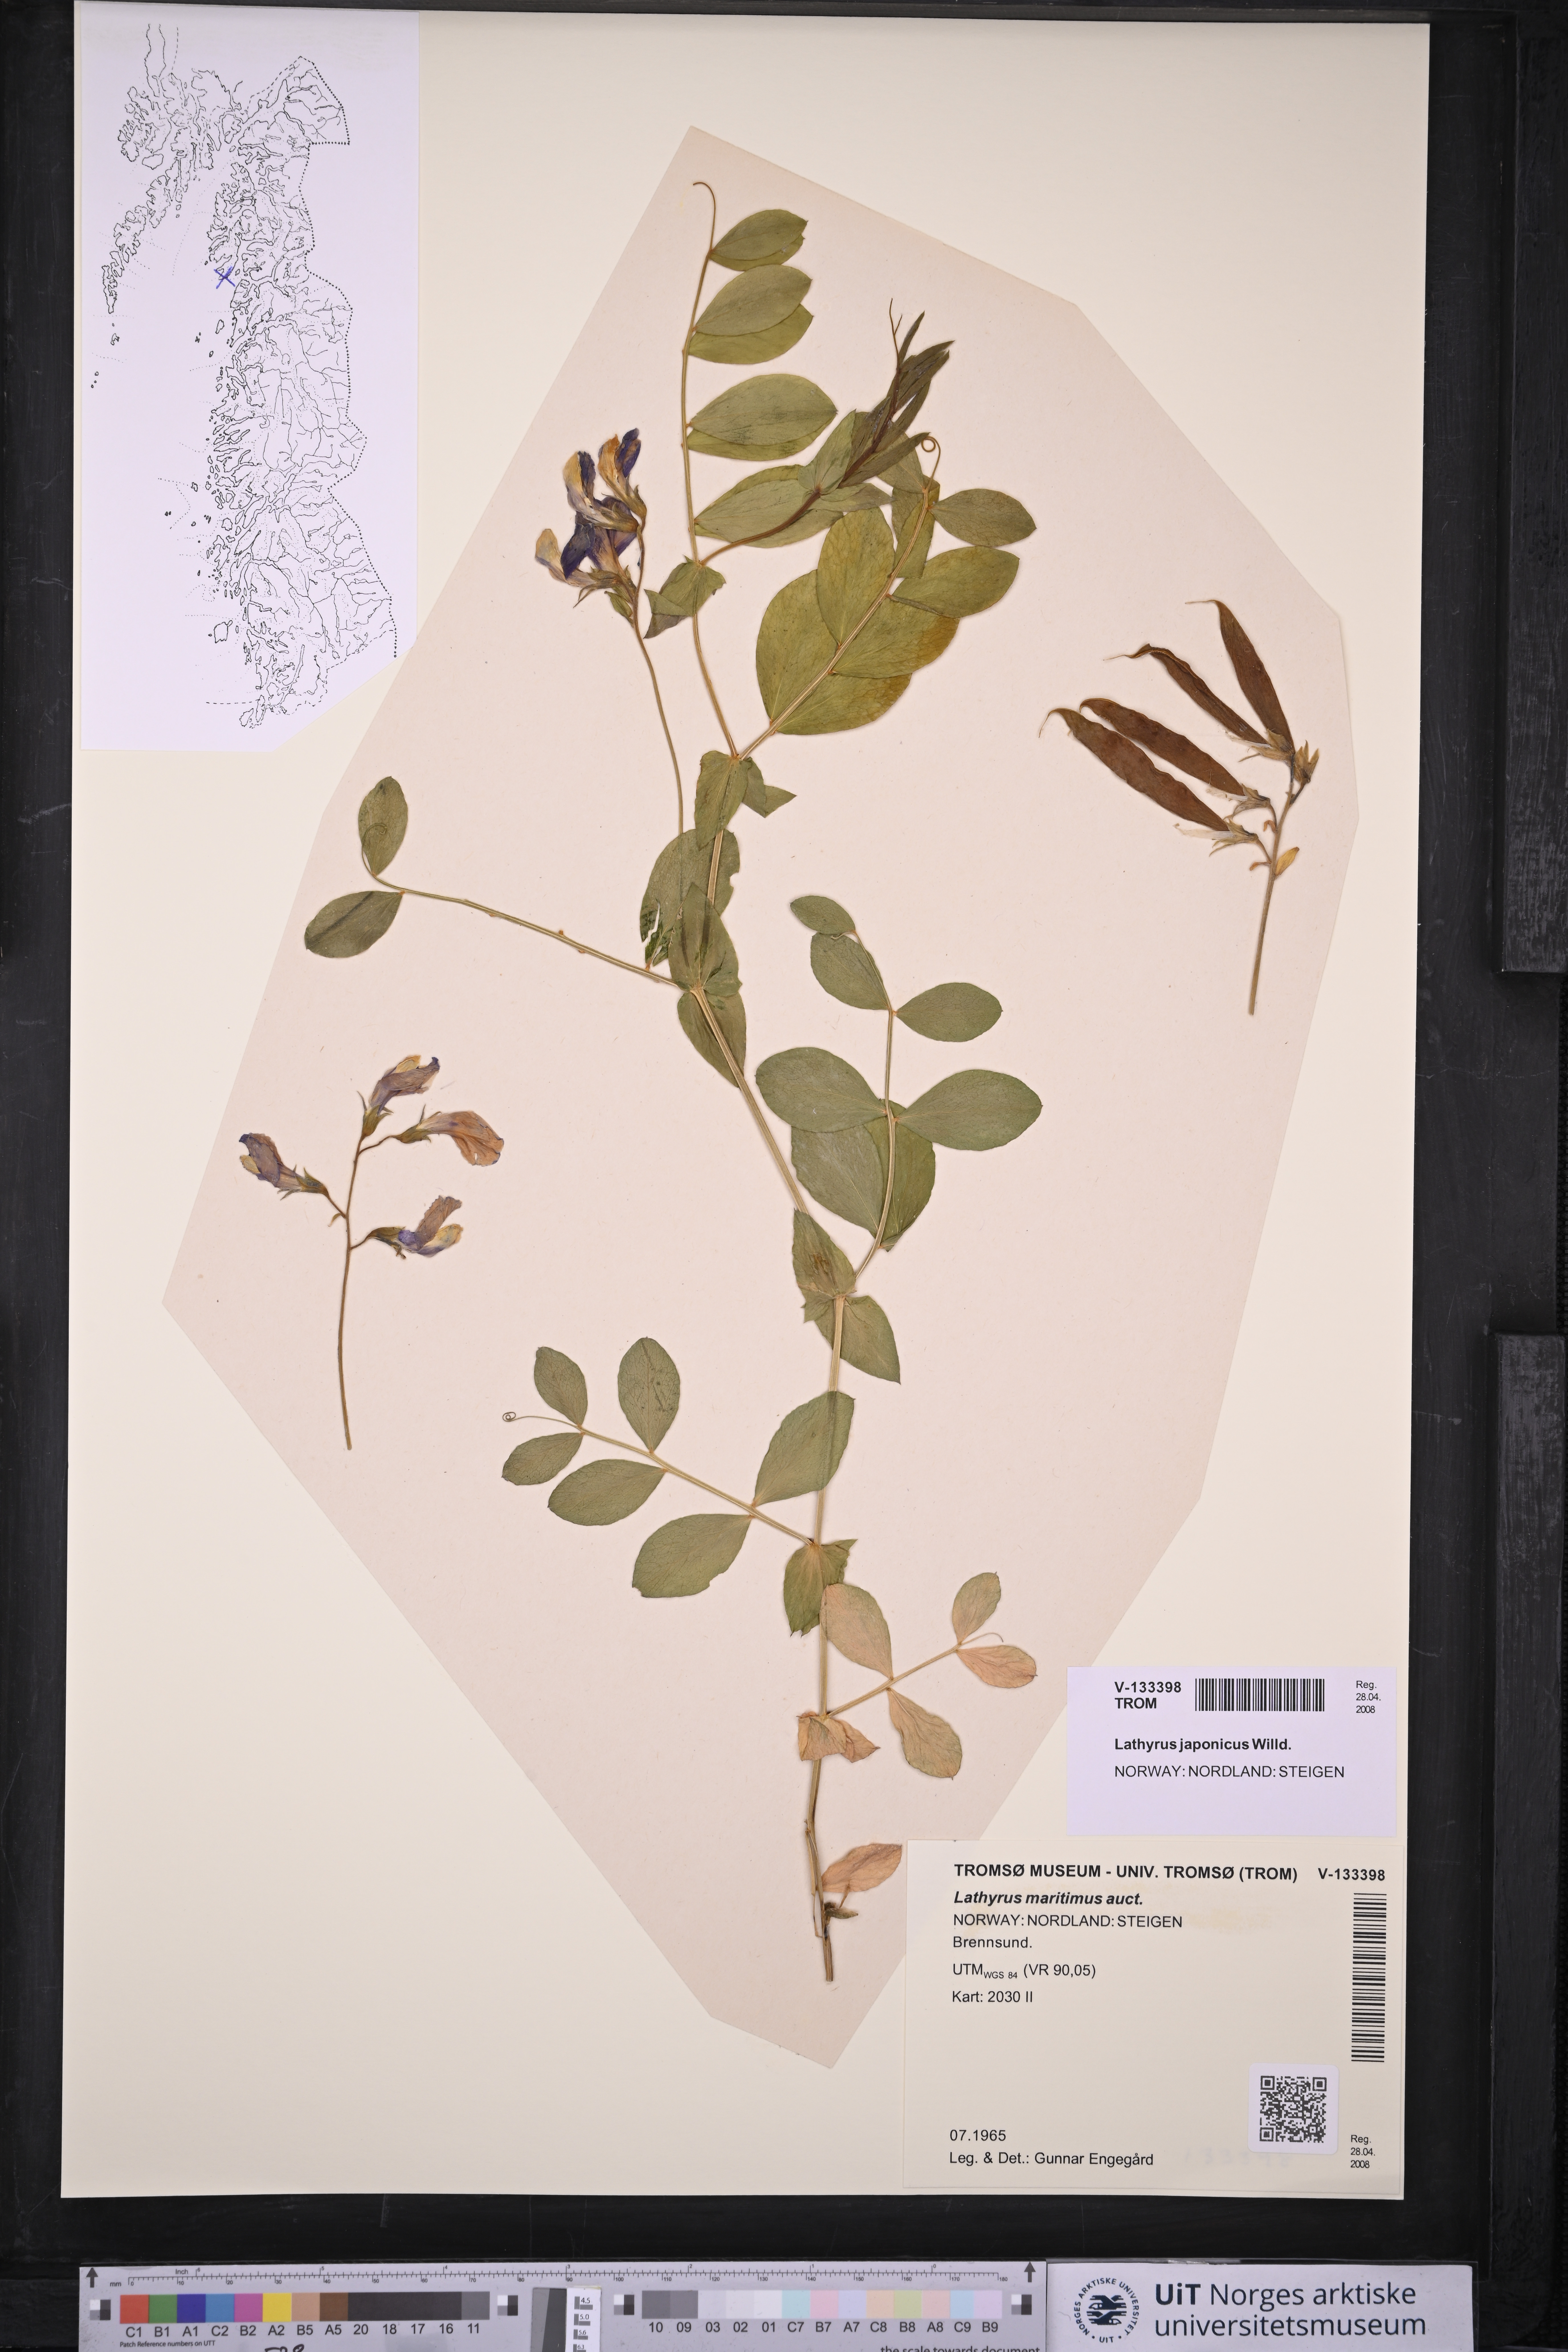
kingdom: Plantae
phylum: Tracheophyta
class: Magnoliopsida
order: Fabales
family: Fabaceae
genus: Lathyrus
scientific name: Lathyrus japonicus
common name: Sea pea
